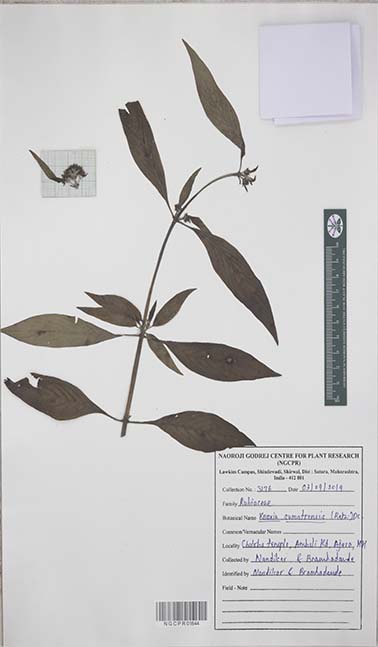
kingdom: Plantae
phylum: Tracheophyta
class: Magnoliopsida
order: Gentianales
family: Rubiaceae
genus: Knoxia
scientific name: Knoxia sumatrensis
